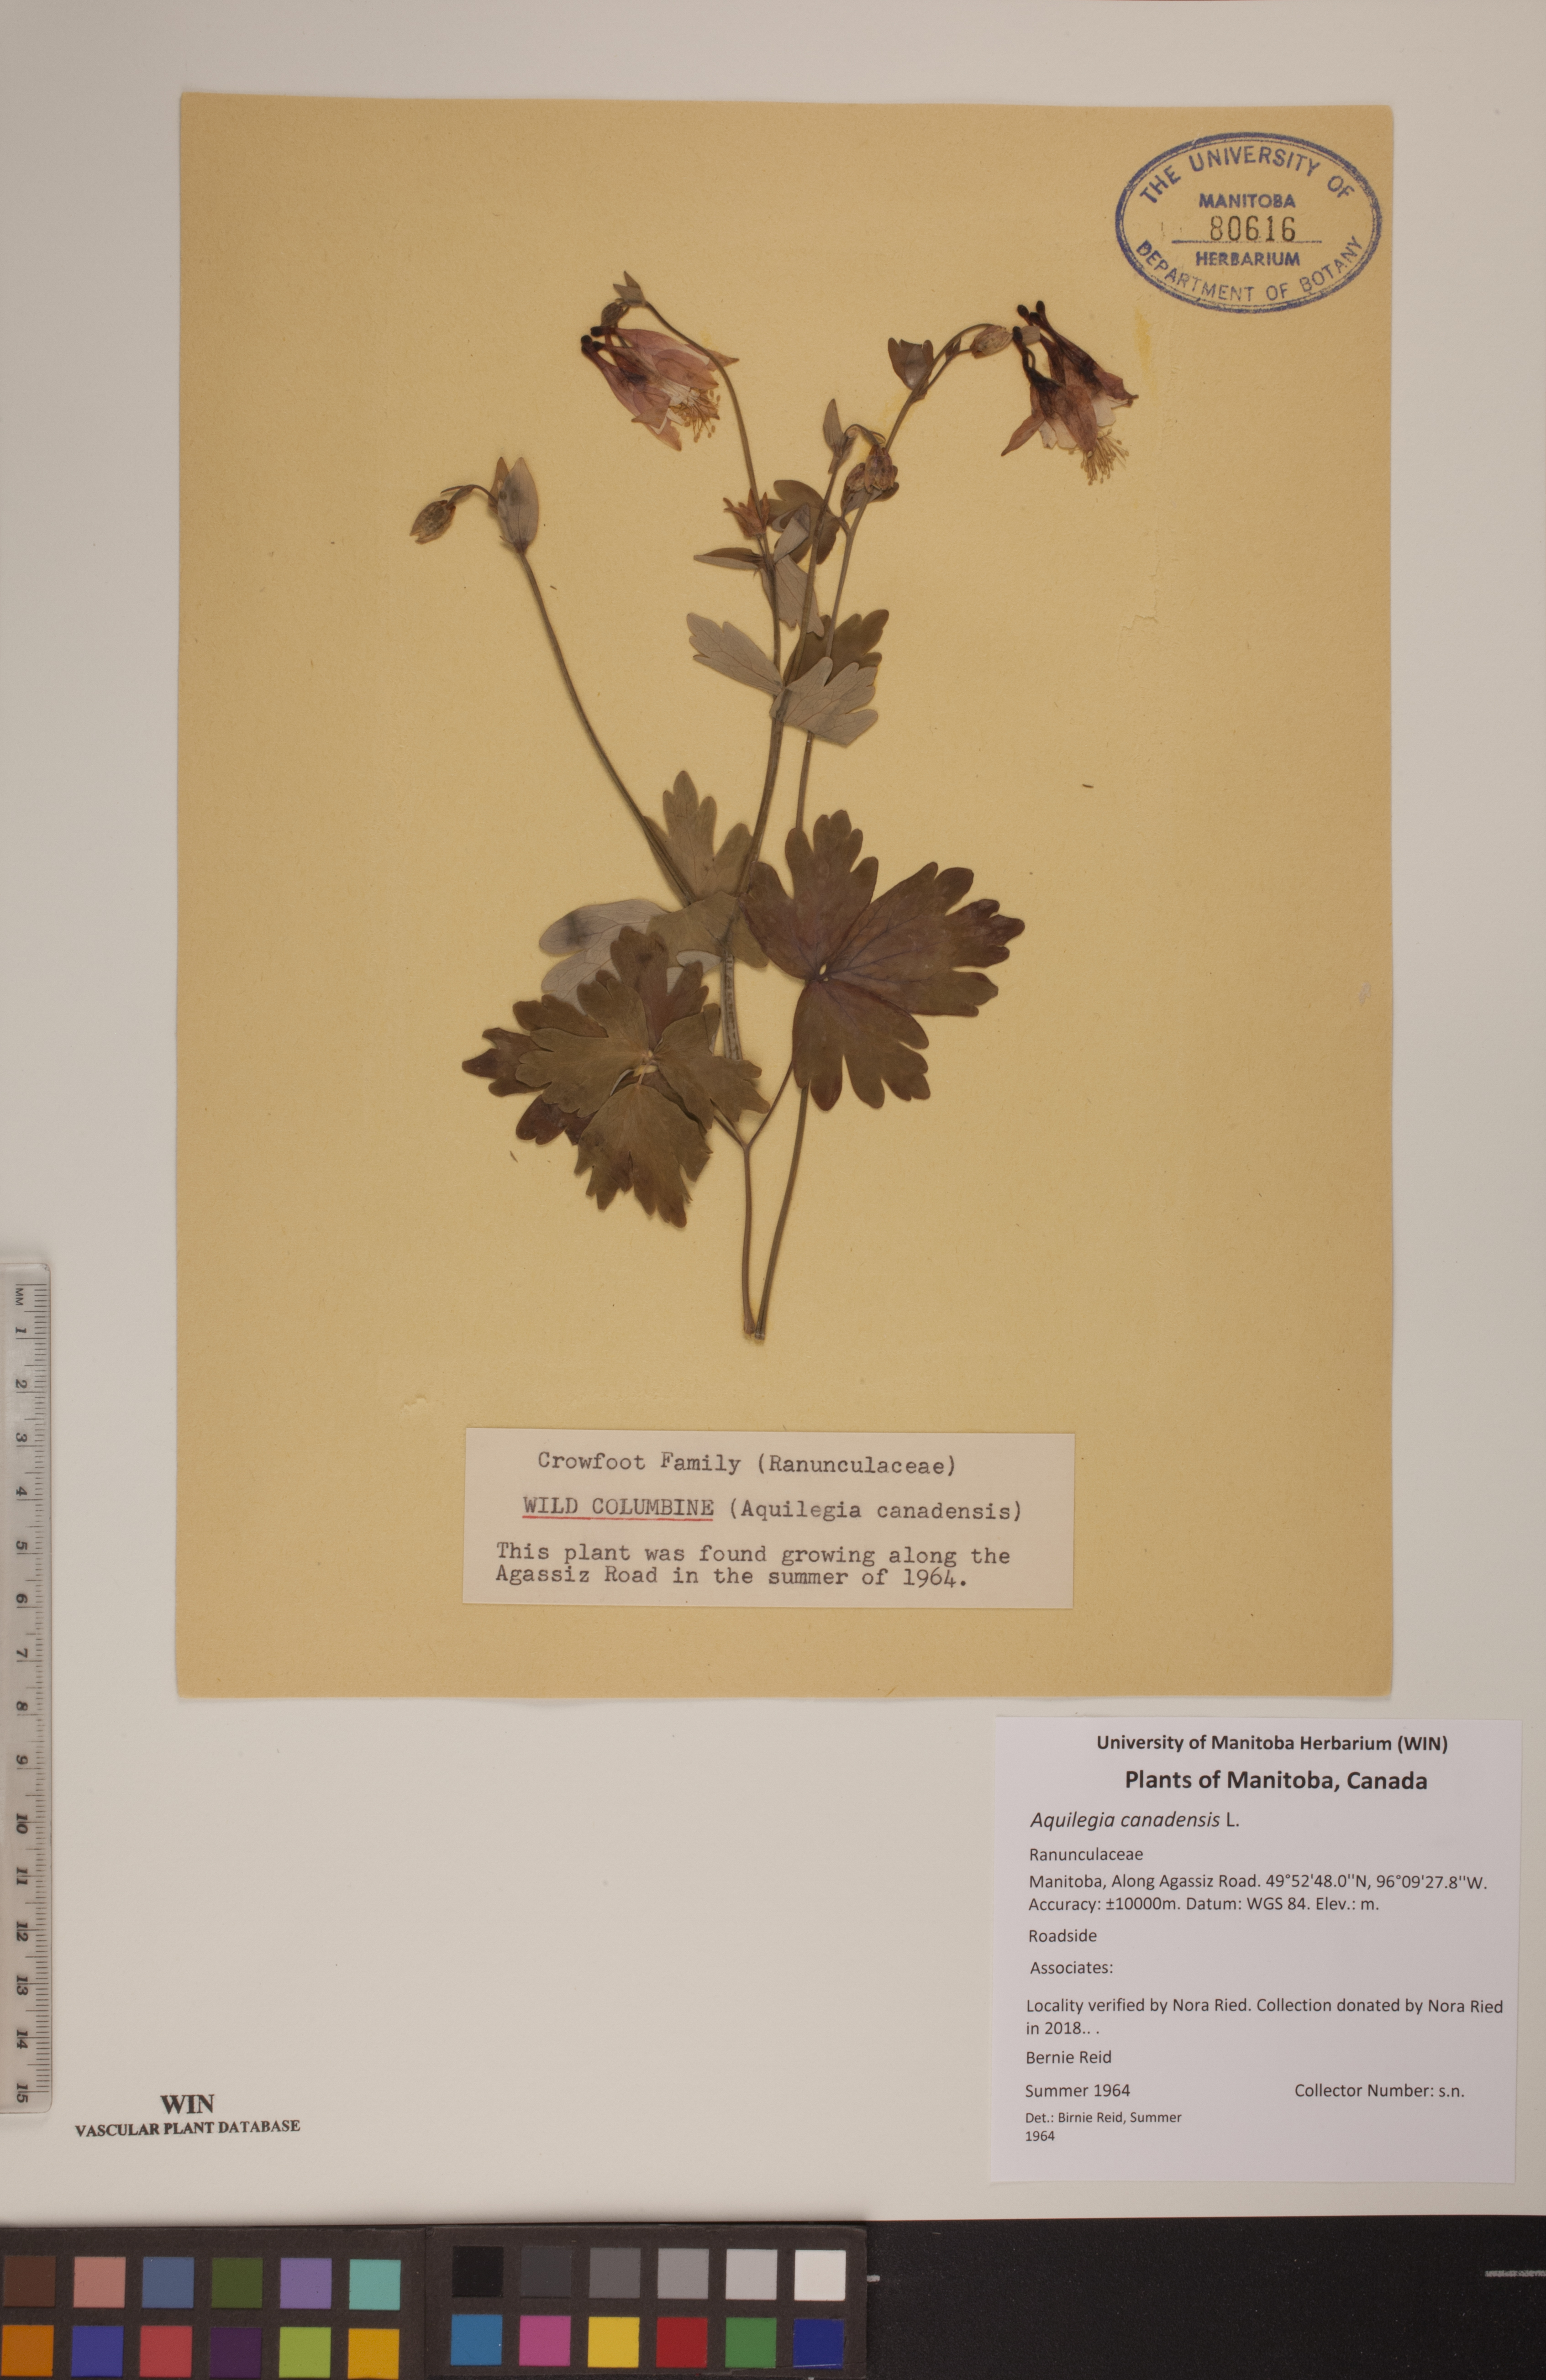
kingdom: Plantae
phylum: Tracheophyta
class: Magnoliopsida
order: Ranunculales
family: Ranunculaceae
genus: Aquilegia
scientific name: Aquilegia canadensis
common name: American columbine
